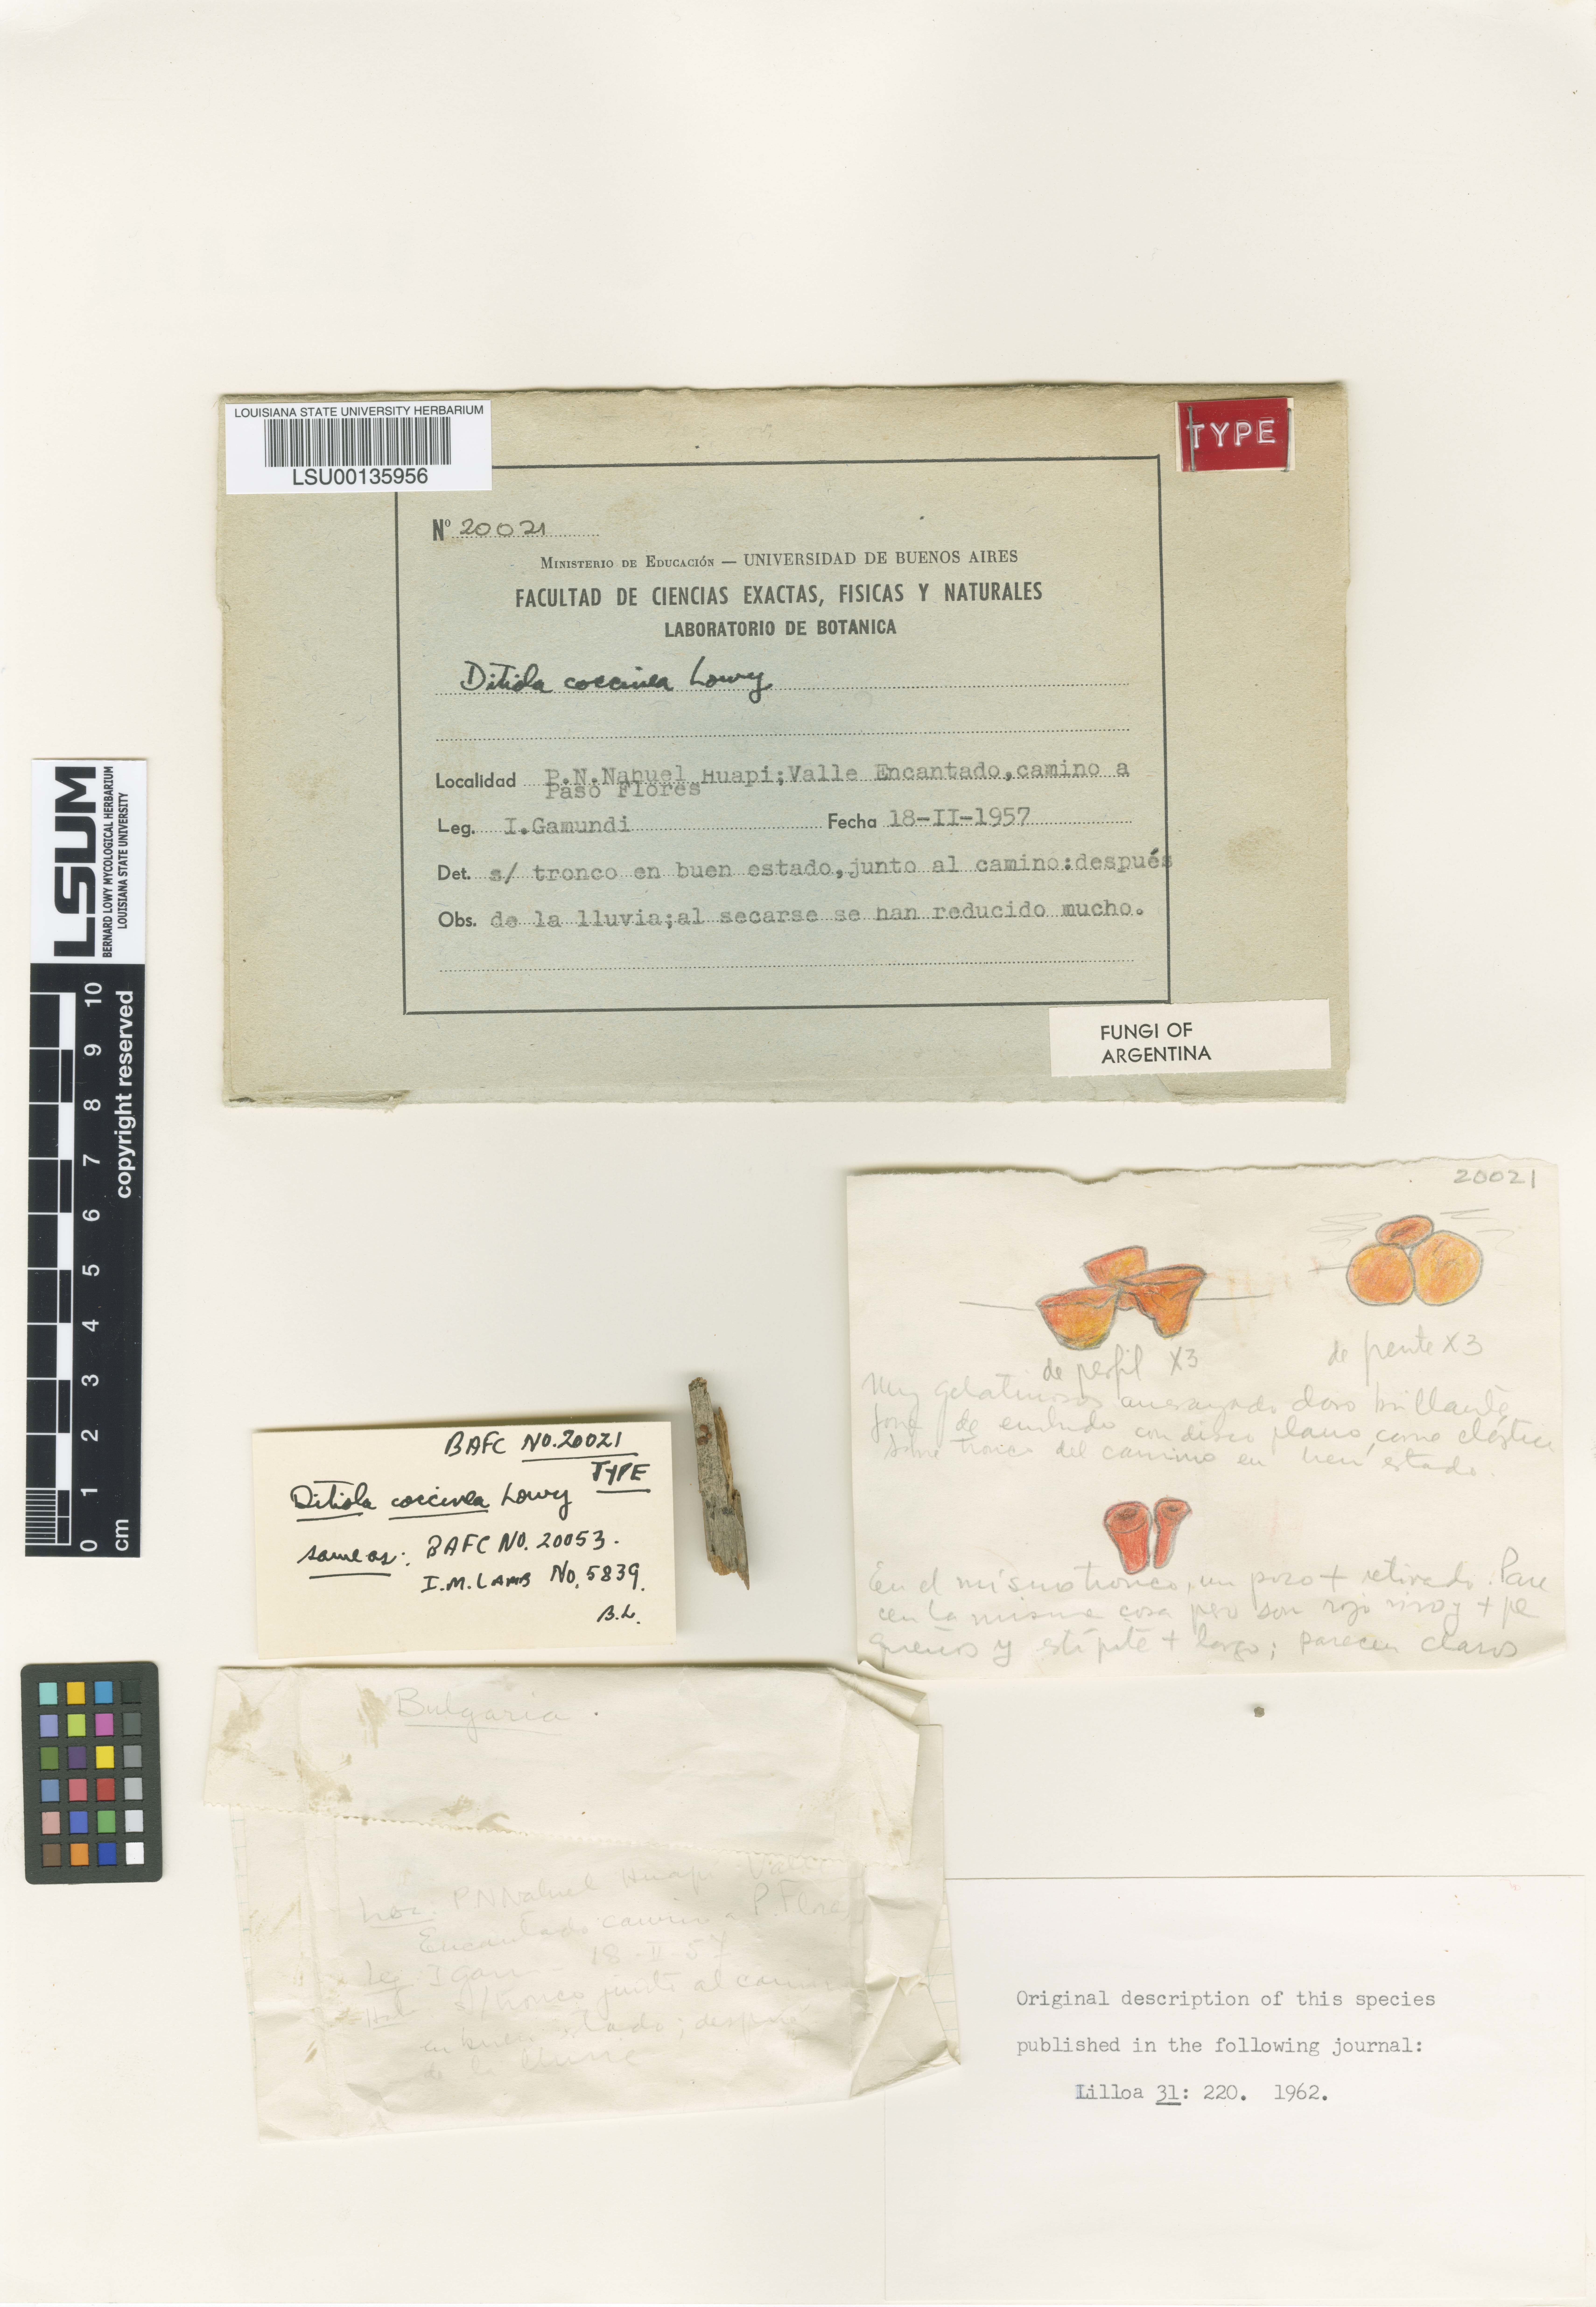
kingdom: Fungi
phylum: Basidiomycota
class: Dacrymycetes
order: Dacrymycetales
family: Dacrymycetaceae
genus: Ditiola
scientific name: Ditiola coccinea
